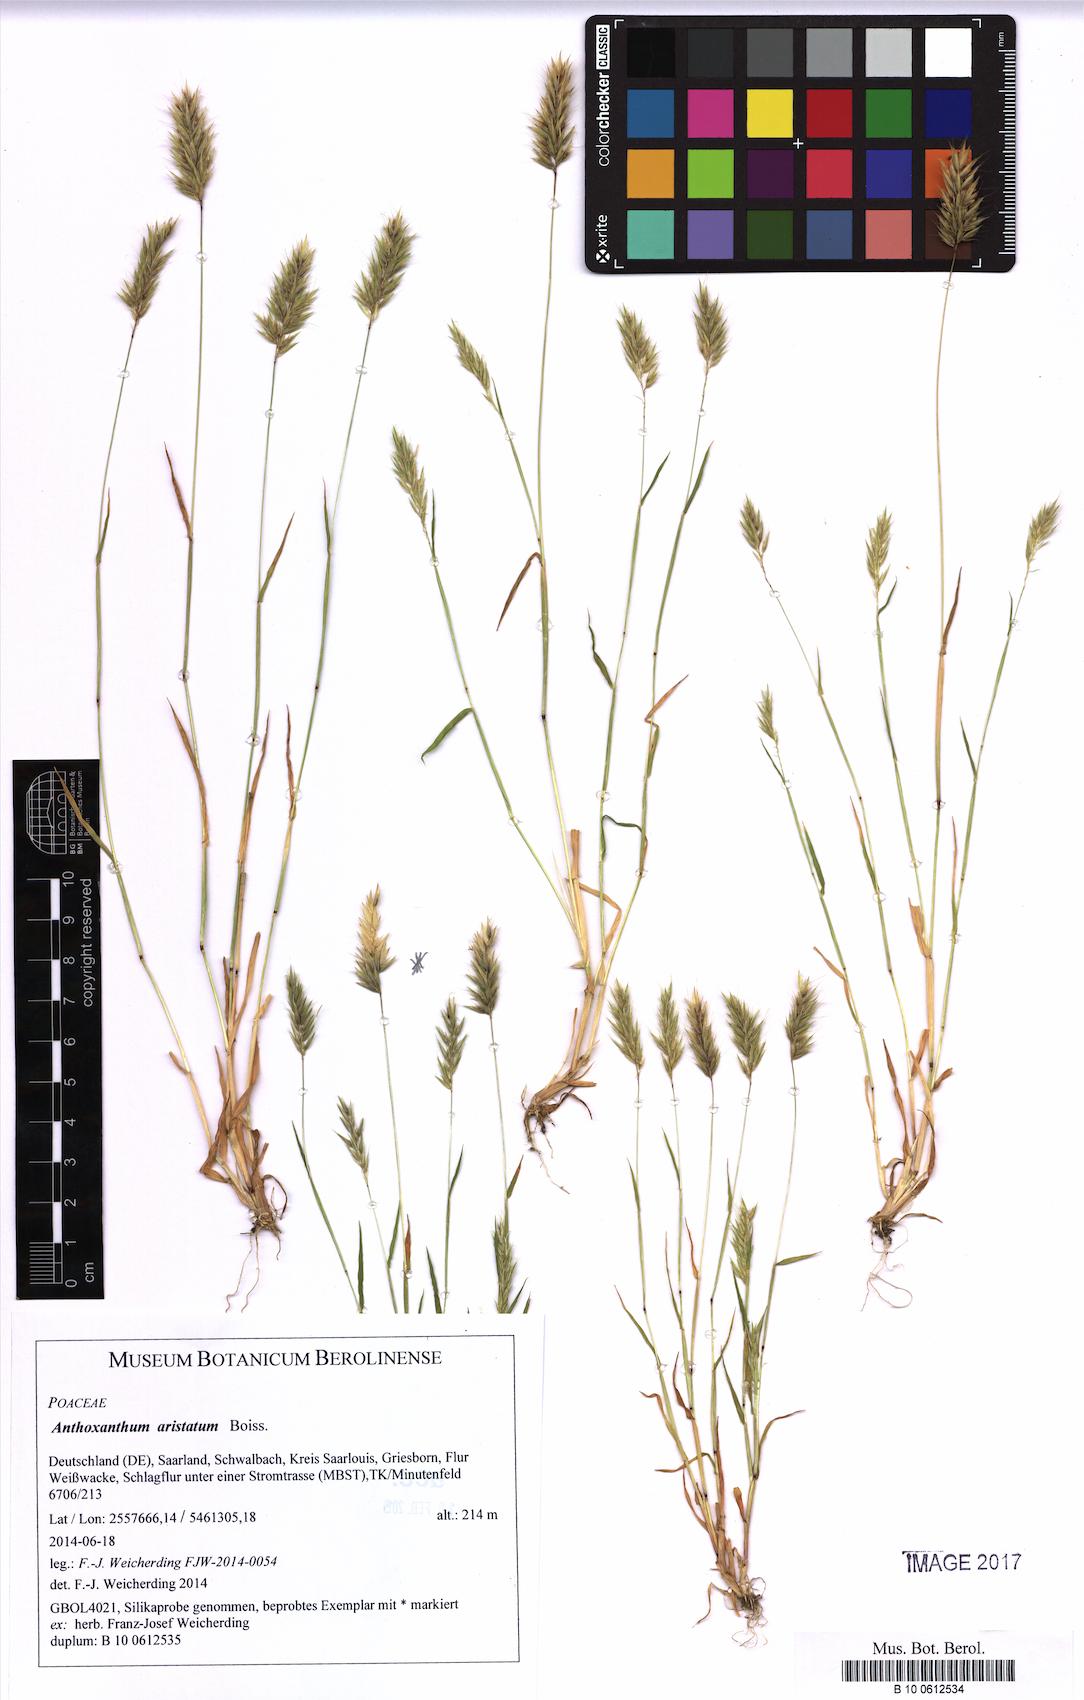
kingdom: Plantae
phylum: Tracheophyta
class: Liliopsida
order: Poales
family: Poaceae
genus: Anthoxanthum
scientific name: Anthoxanthum aristatum
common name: Annual vernal-grass
